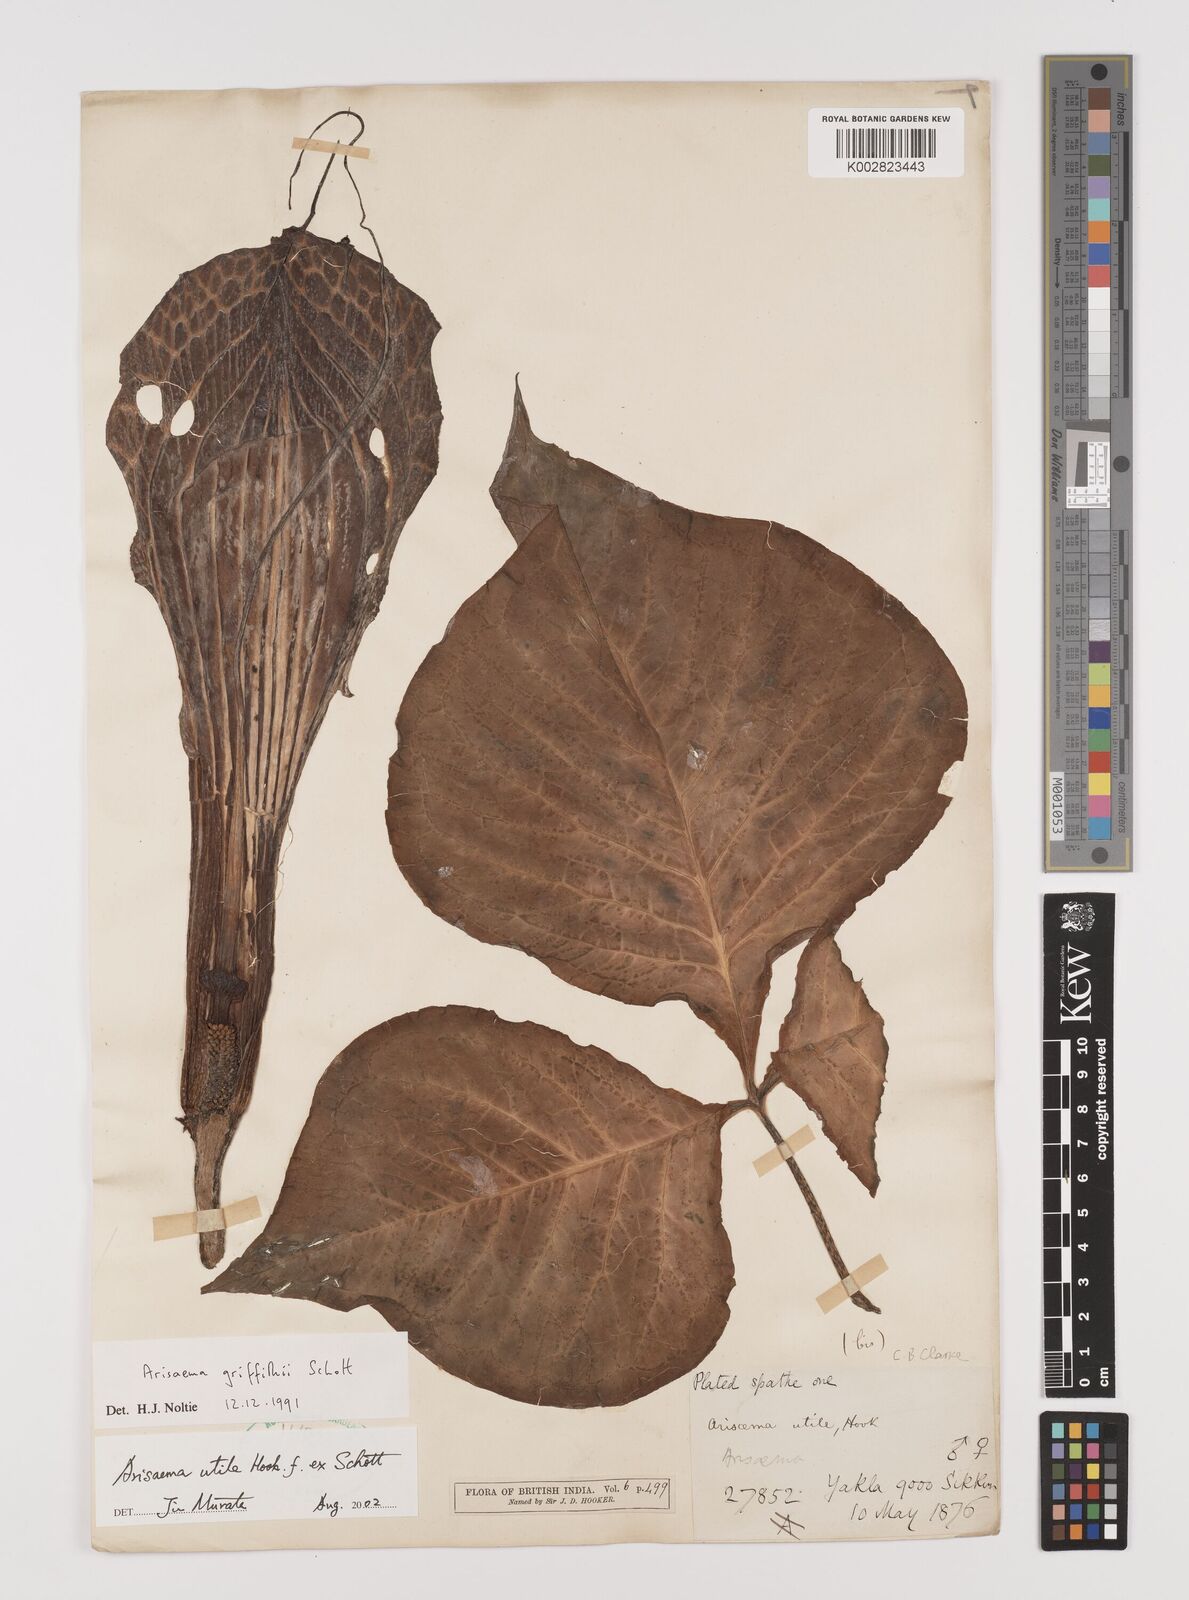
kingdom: Plantae
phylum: Tracheophyta
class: Liliopsida
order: Alismatales
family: Araceae
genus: Arisaema
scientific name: Arisaema utile
